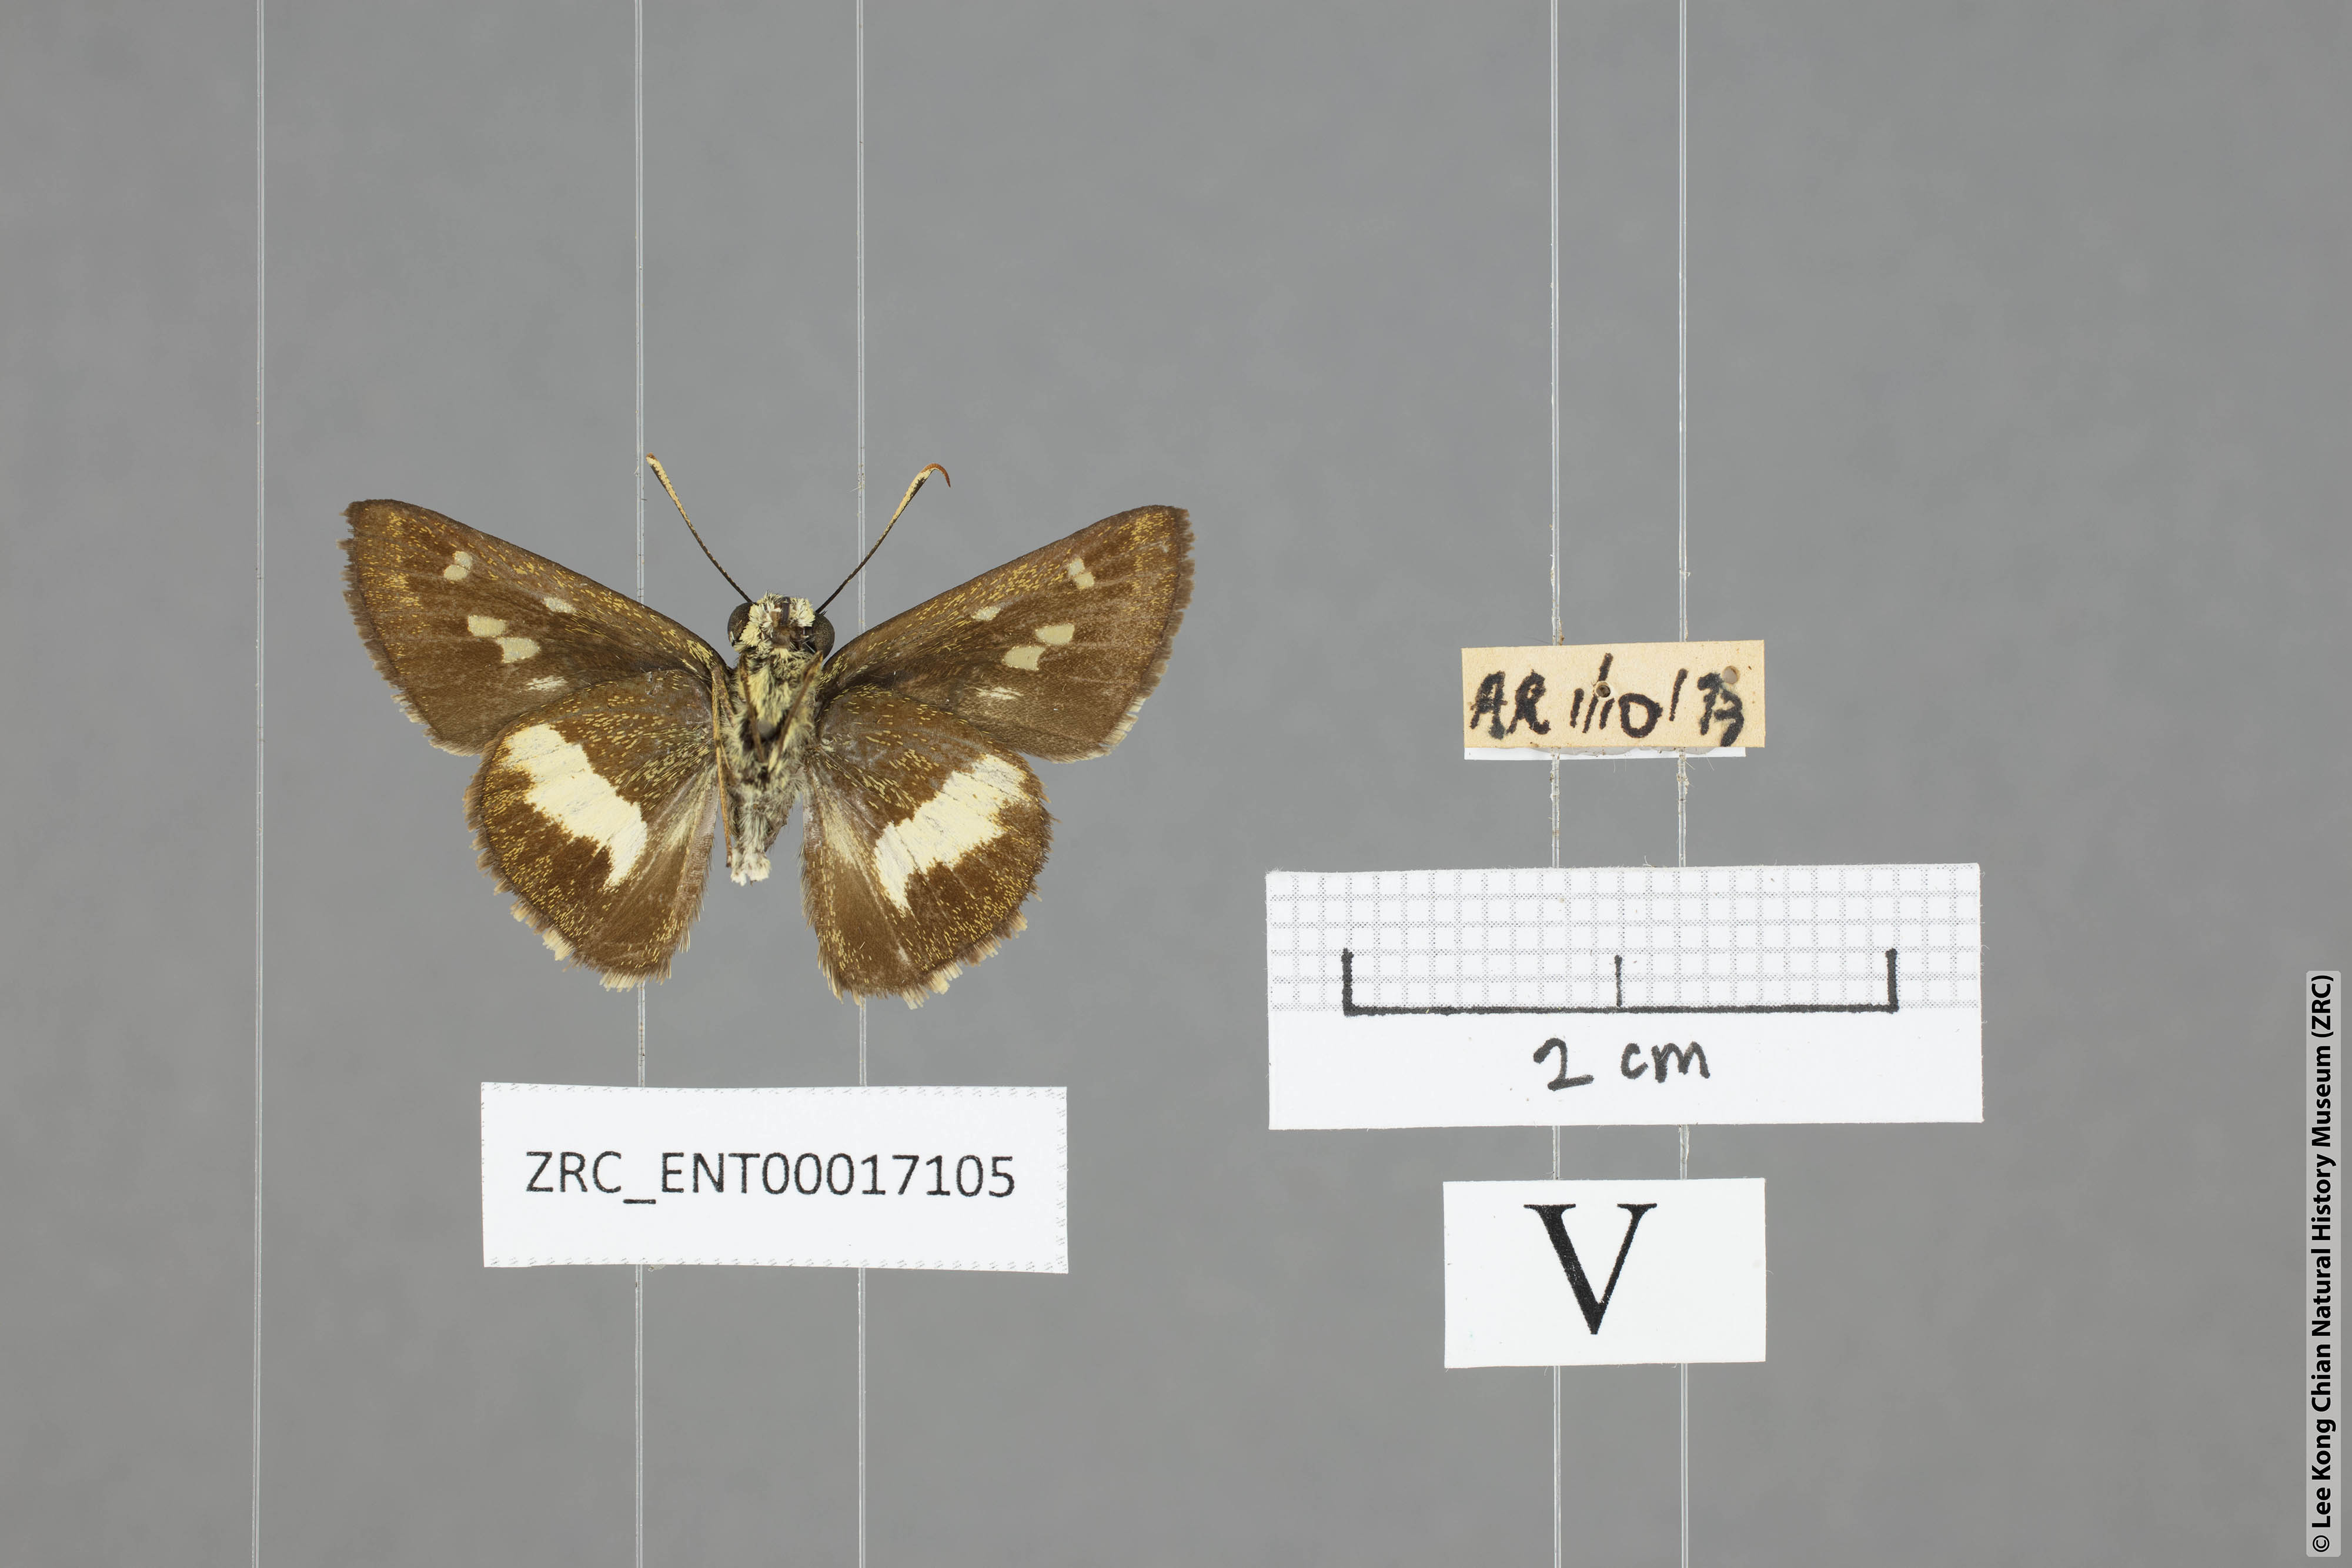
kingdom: Animalia
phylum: Arthropoda
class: Insecta
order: Lepidoptera
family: Hesperiidae
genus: Halpe
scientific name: Halpe zola
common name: Long-banded ace
